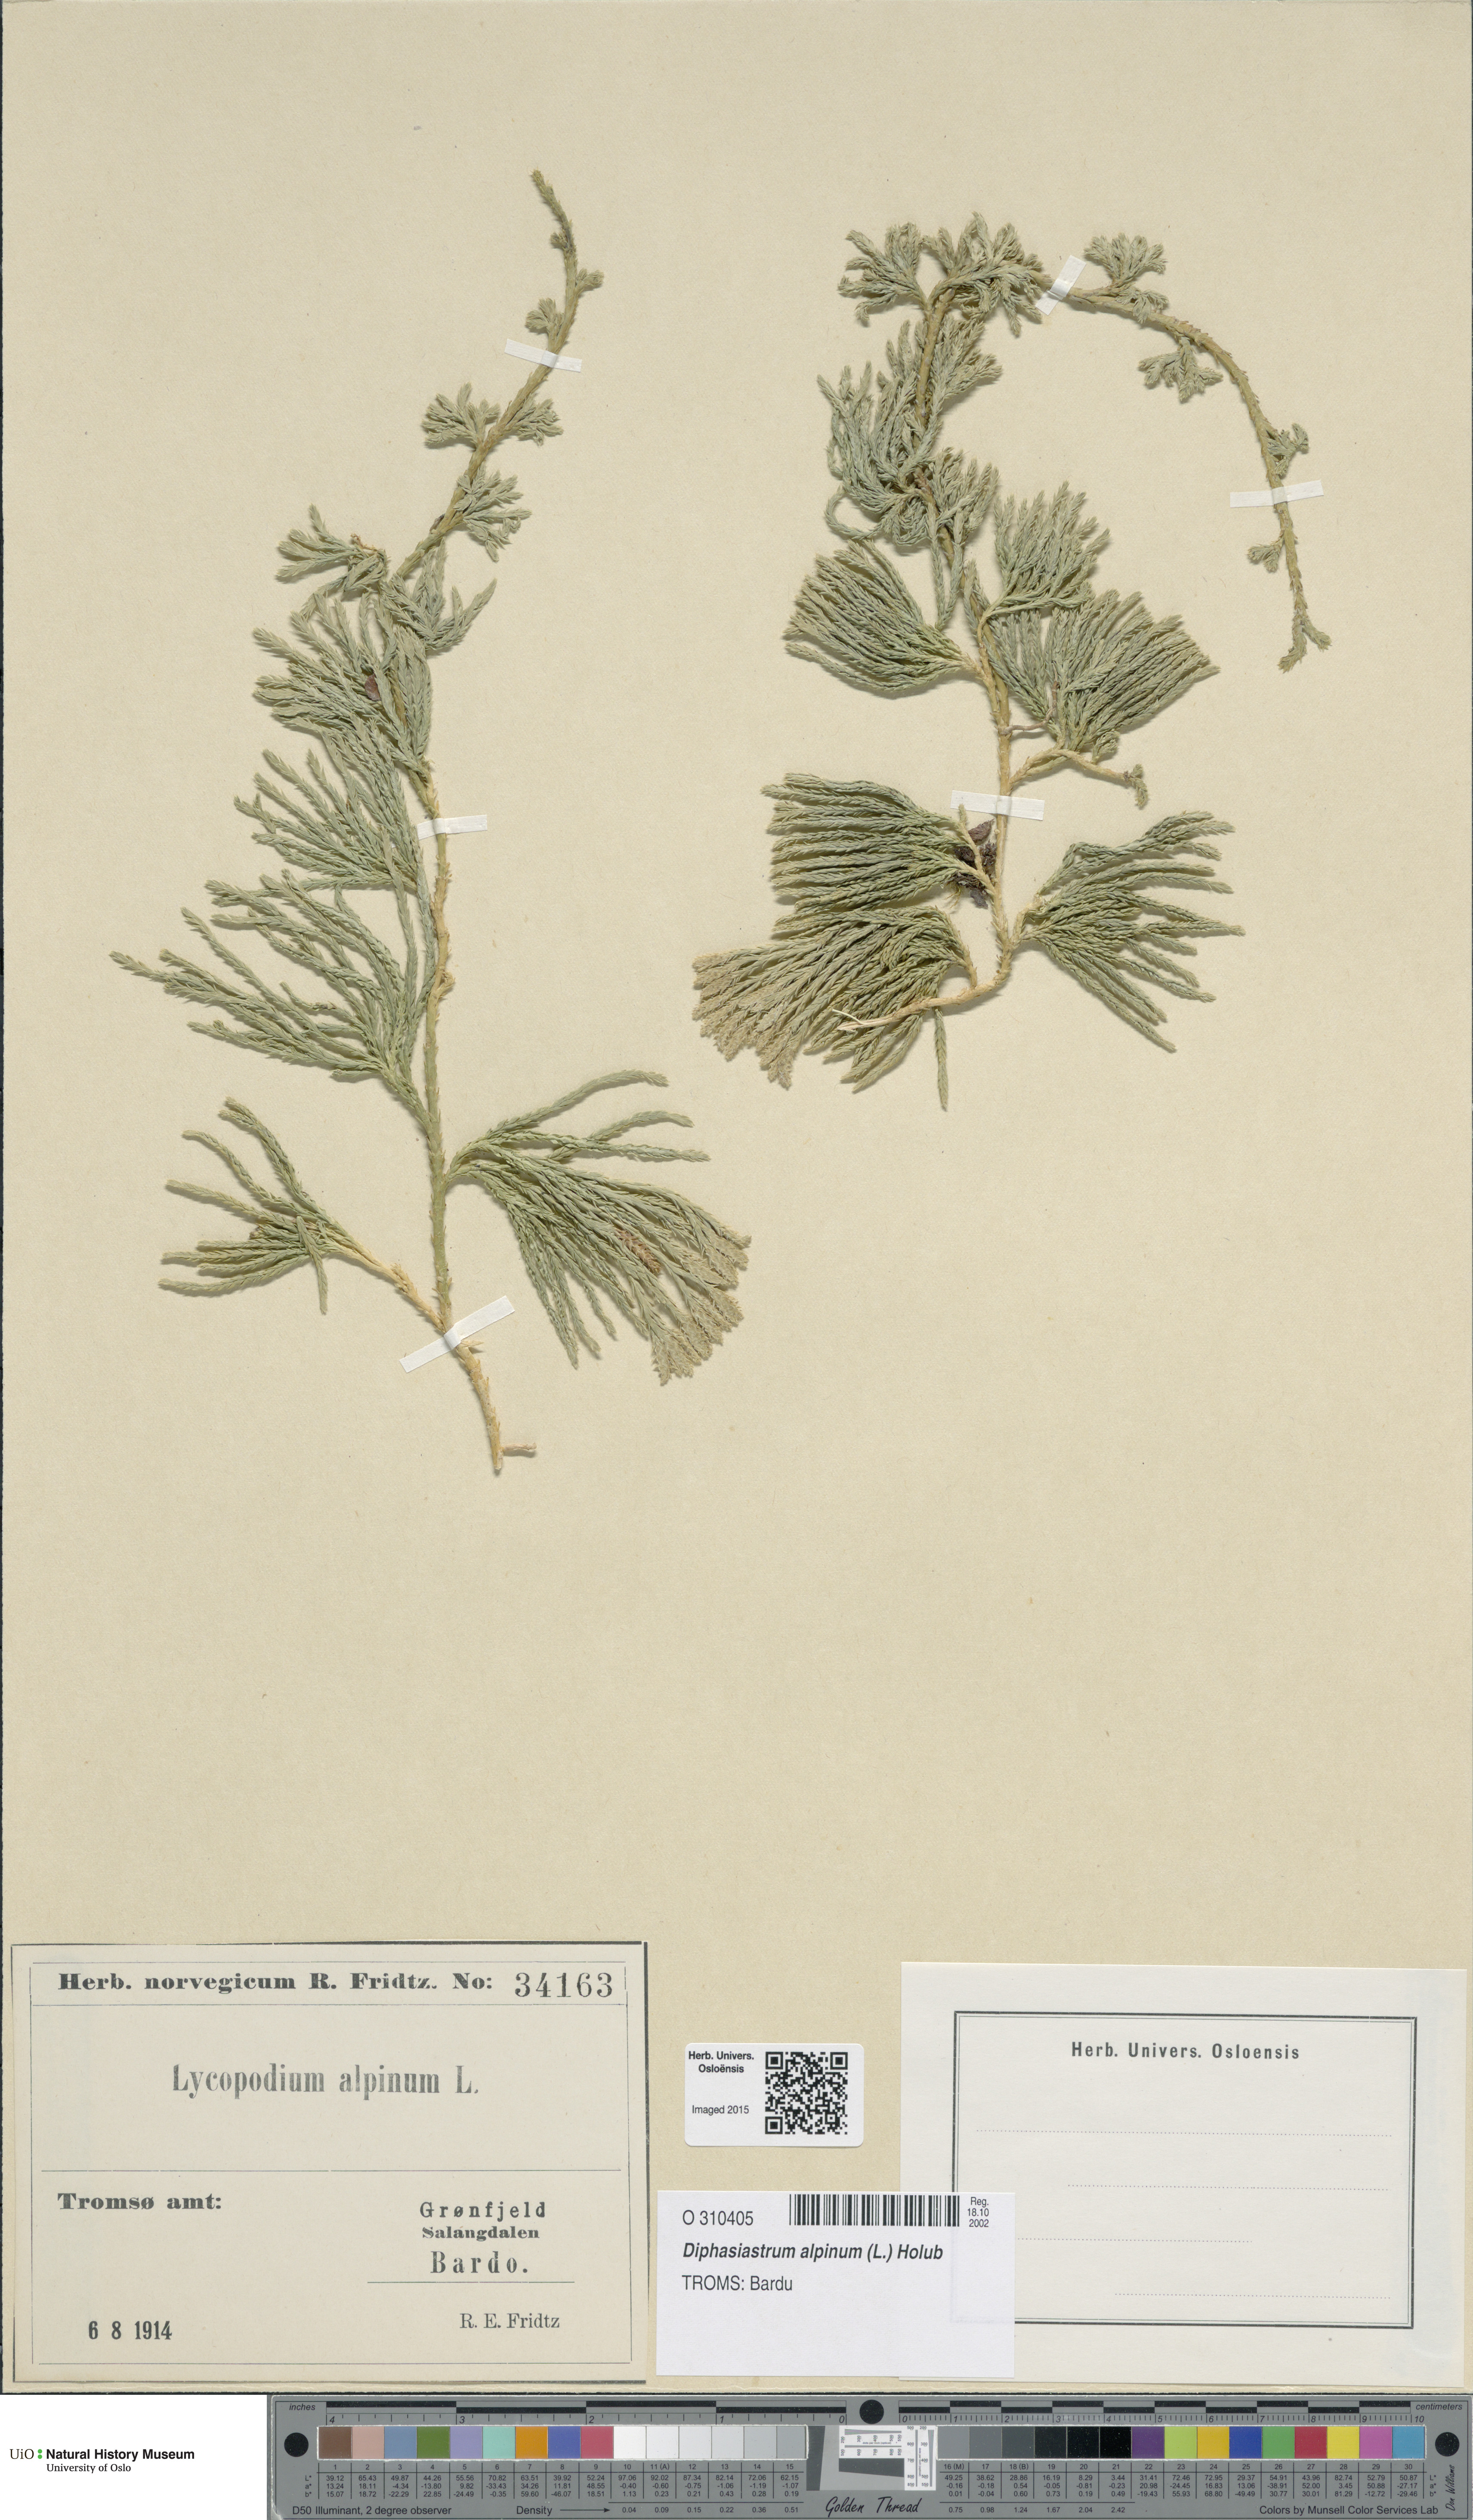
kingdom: Plantae
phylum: Tracheophyta
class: Lycopodiopsida
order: Lycopodiales
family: Lycopodiaceae
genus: Diphasiastrum
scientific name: Diphasiastrum alpinum
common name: Alpine clubmoss
